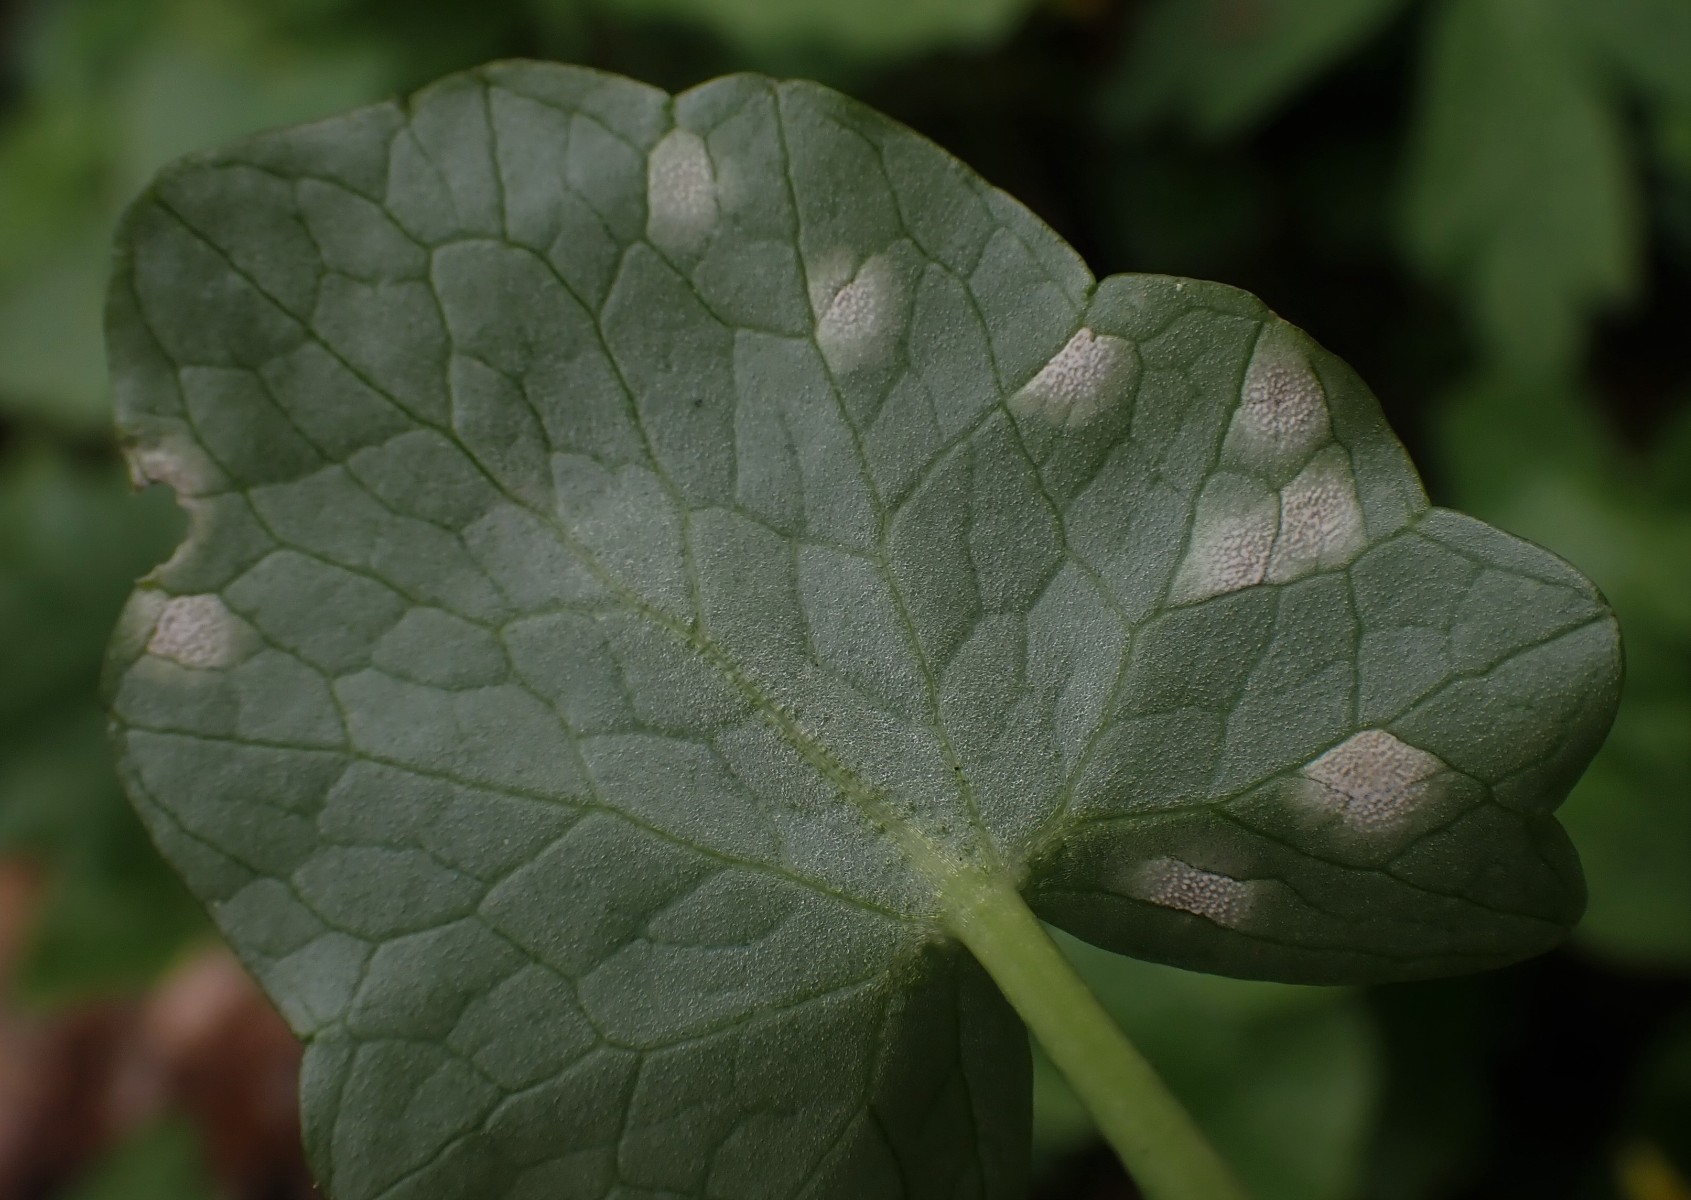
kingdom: Fungi
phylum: Basidiomycota
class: Exobasidiomycetes
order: Entylomatales
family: Entylomataceae
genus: Entyloma
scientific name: Entyloma ficariae
